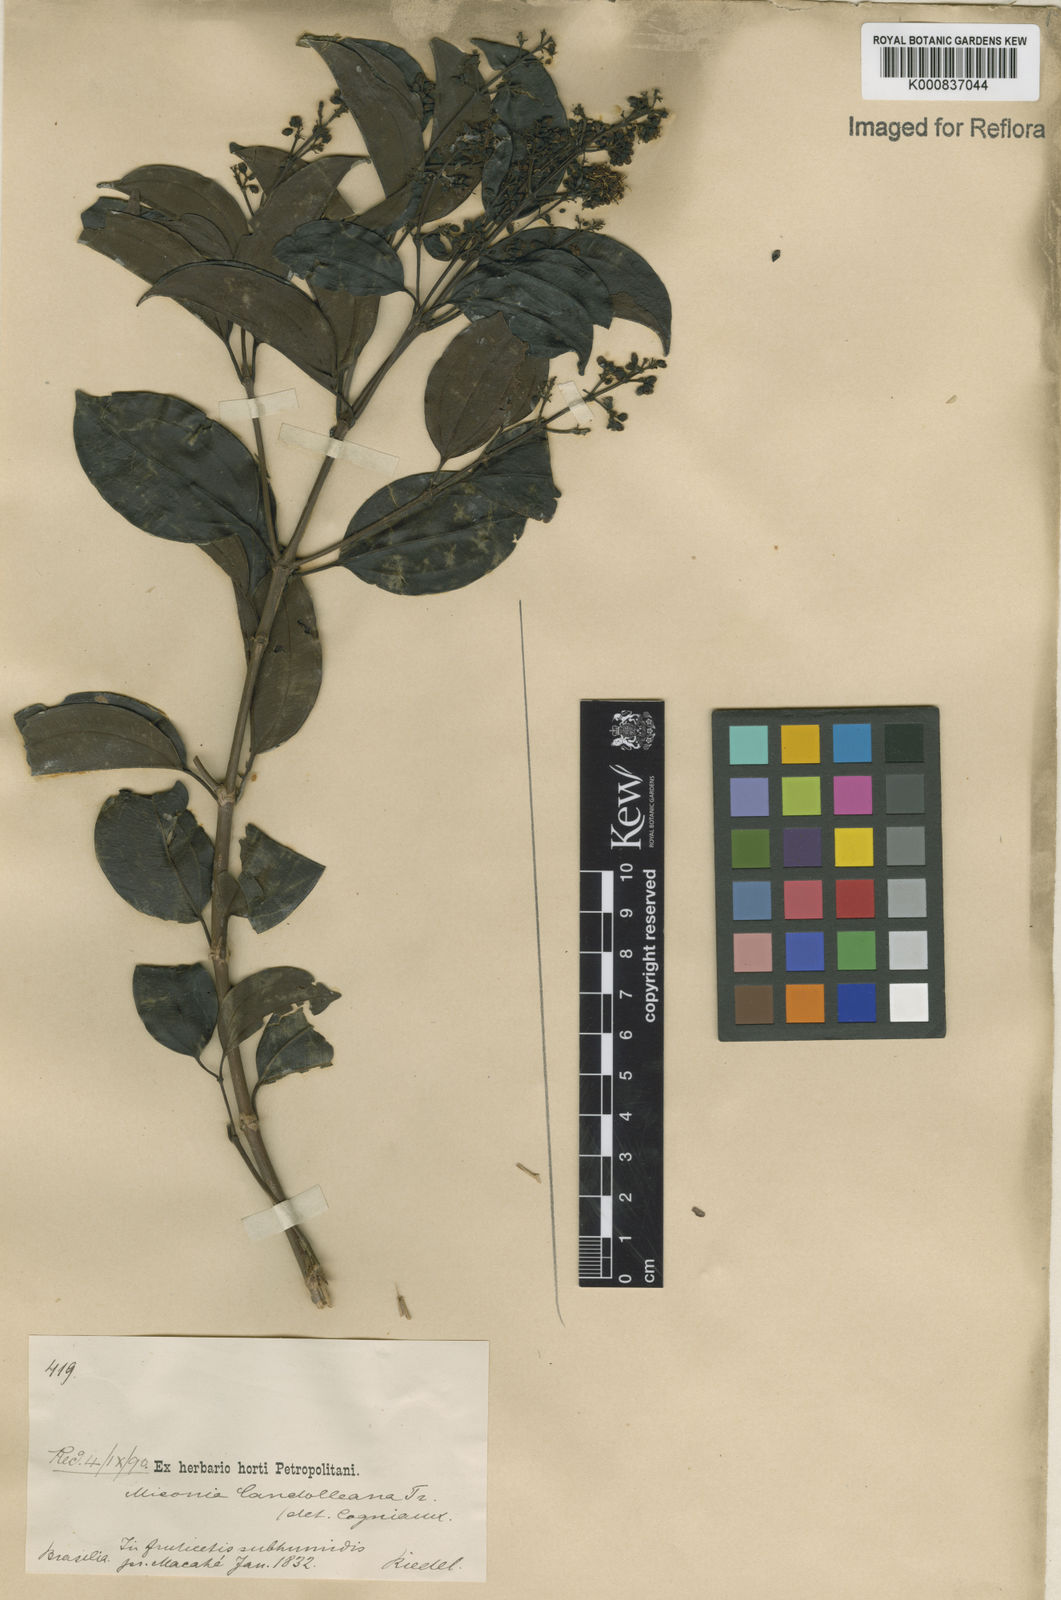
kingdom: Plantae
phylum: Tracheophyta
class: Magnoliopsida
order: Myrtales
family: Melastomataceae
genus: Miconia
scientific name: Miconia cinnamomifolia
